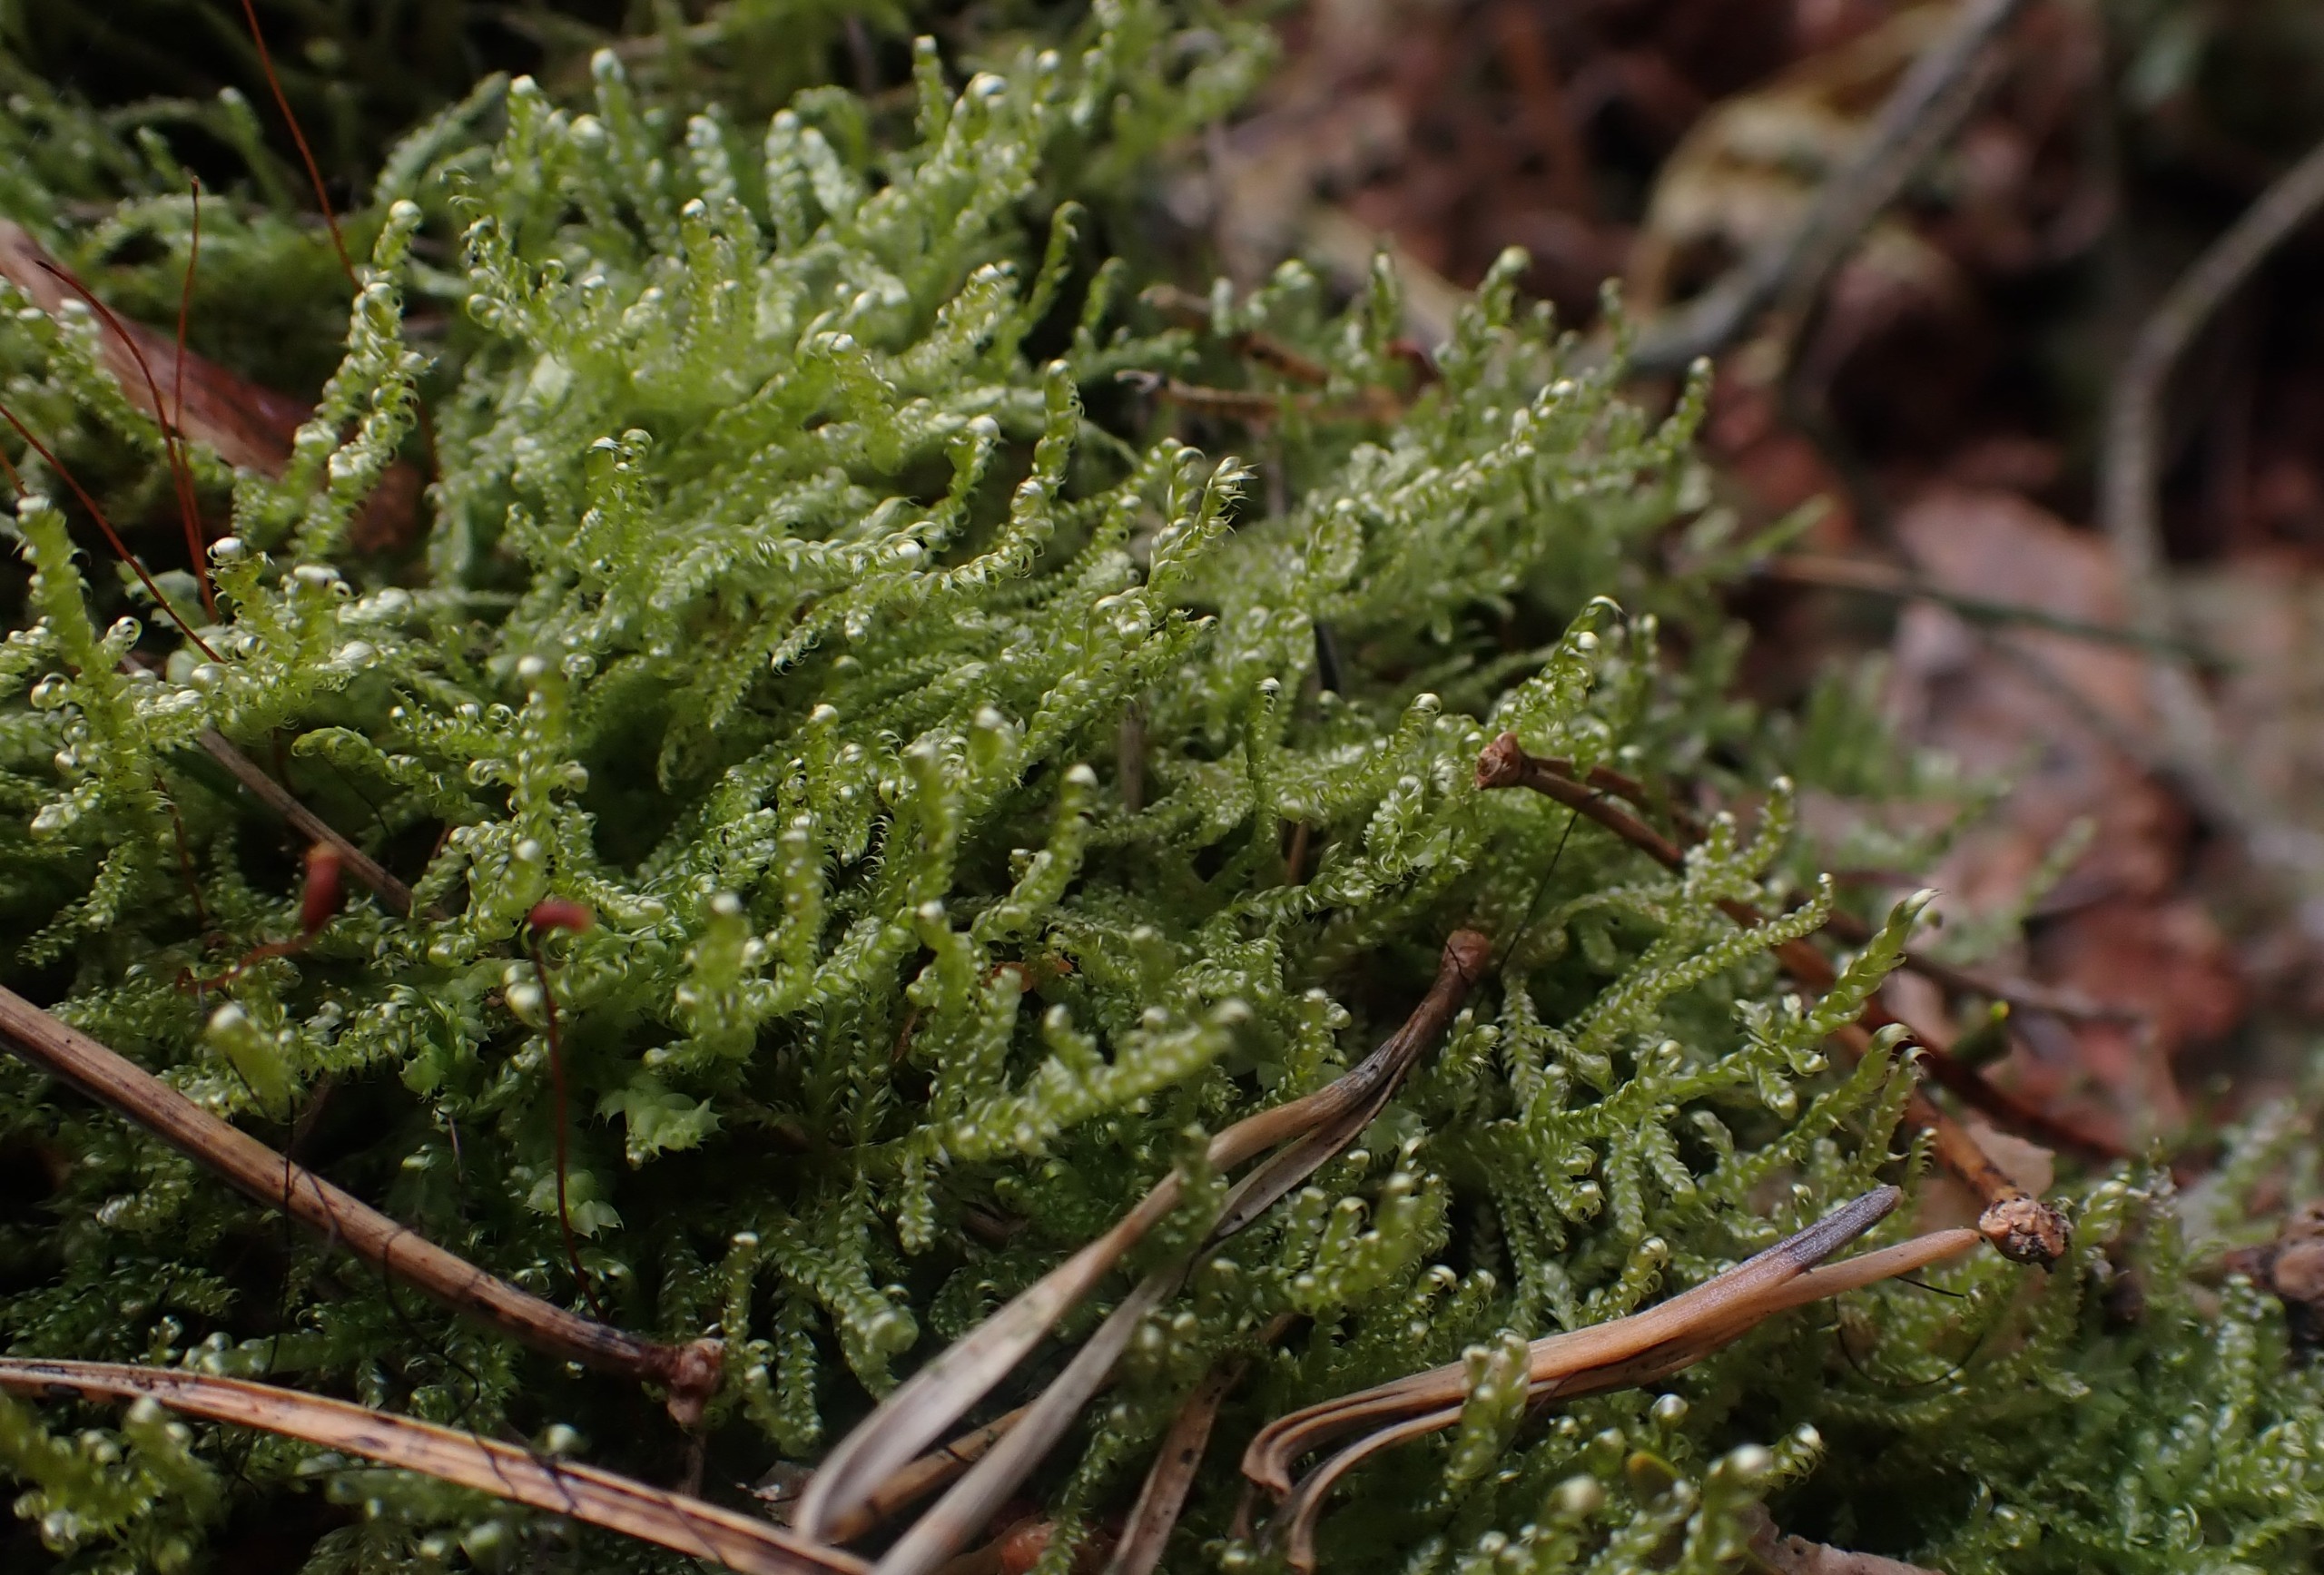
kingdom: Plantae
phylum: Bryophyta
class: Bryopsida
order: Hypnales
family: Hypnaceae
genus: Hypnum
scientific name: Hypnum jutlandicum
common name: Hede-cypresmos
